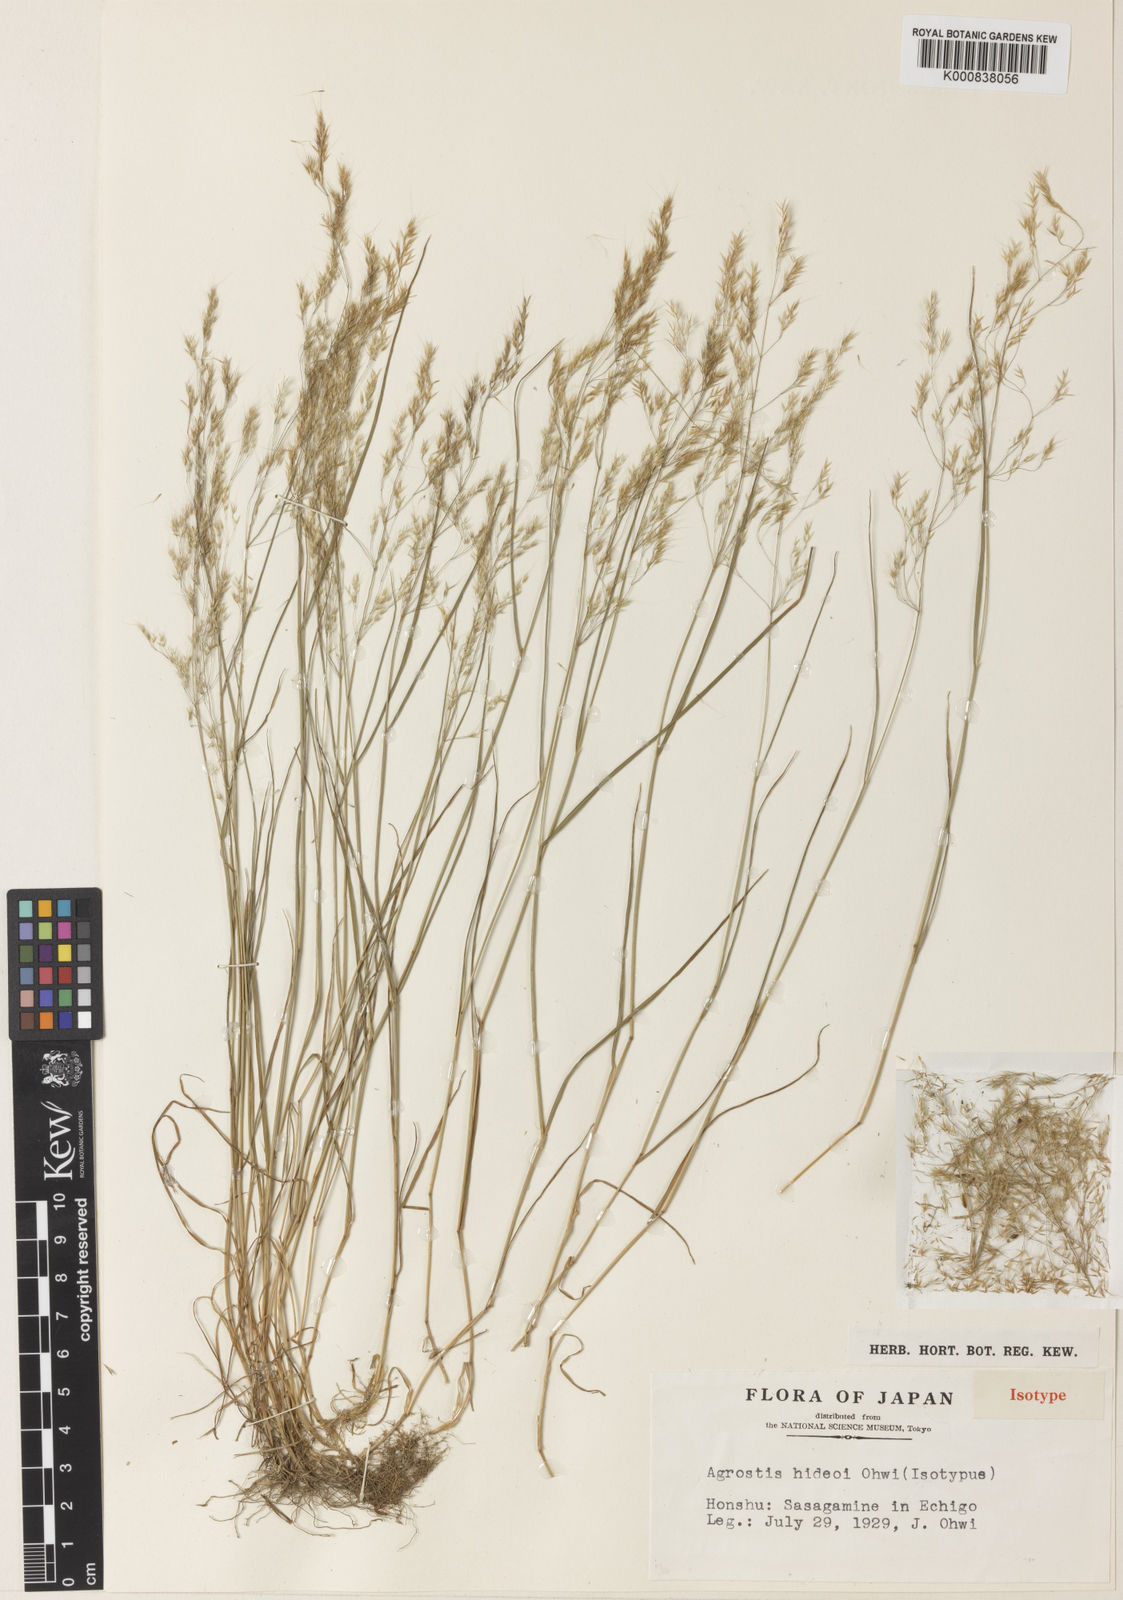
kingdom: Plantae
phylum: Tracheophyta
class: Liliopsida
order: Poales
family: Poaceae
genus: Agrostis
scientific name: Agrostis hideoi
